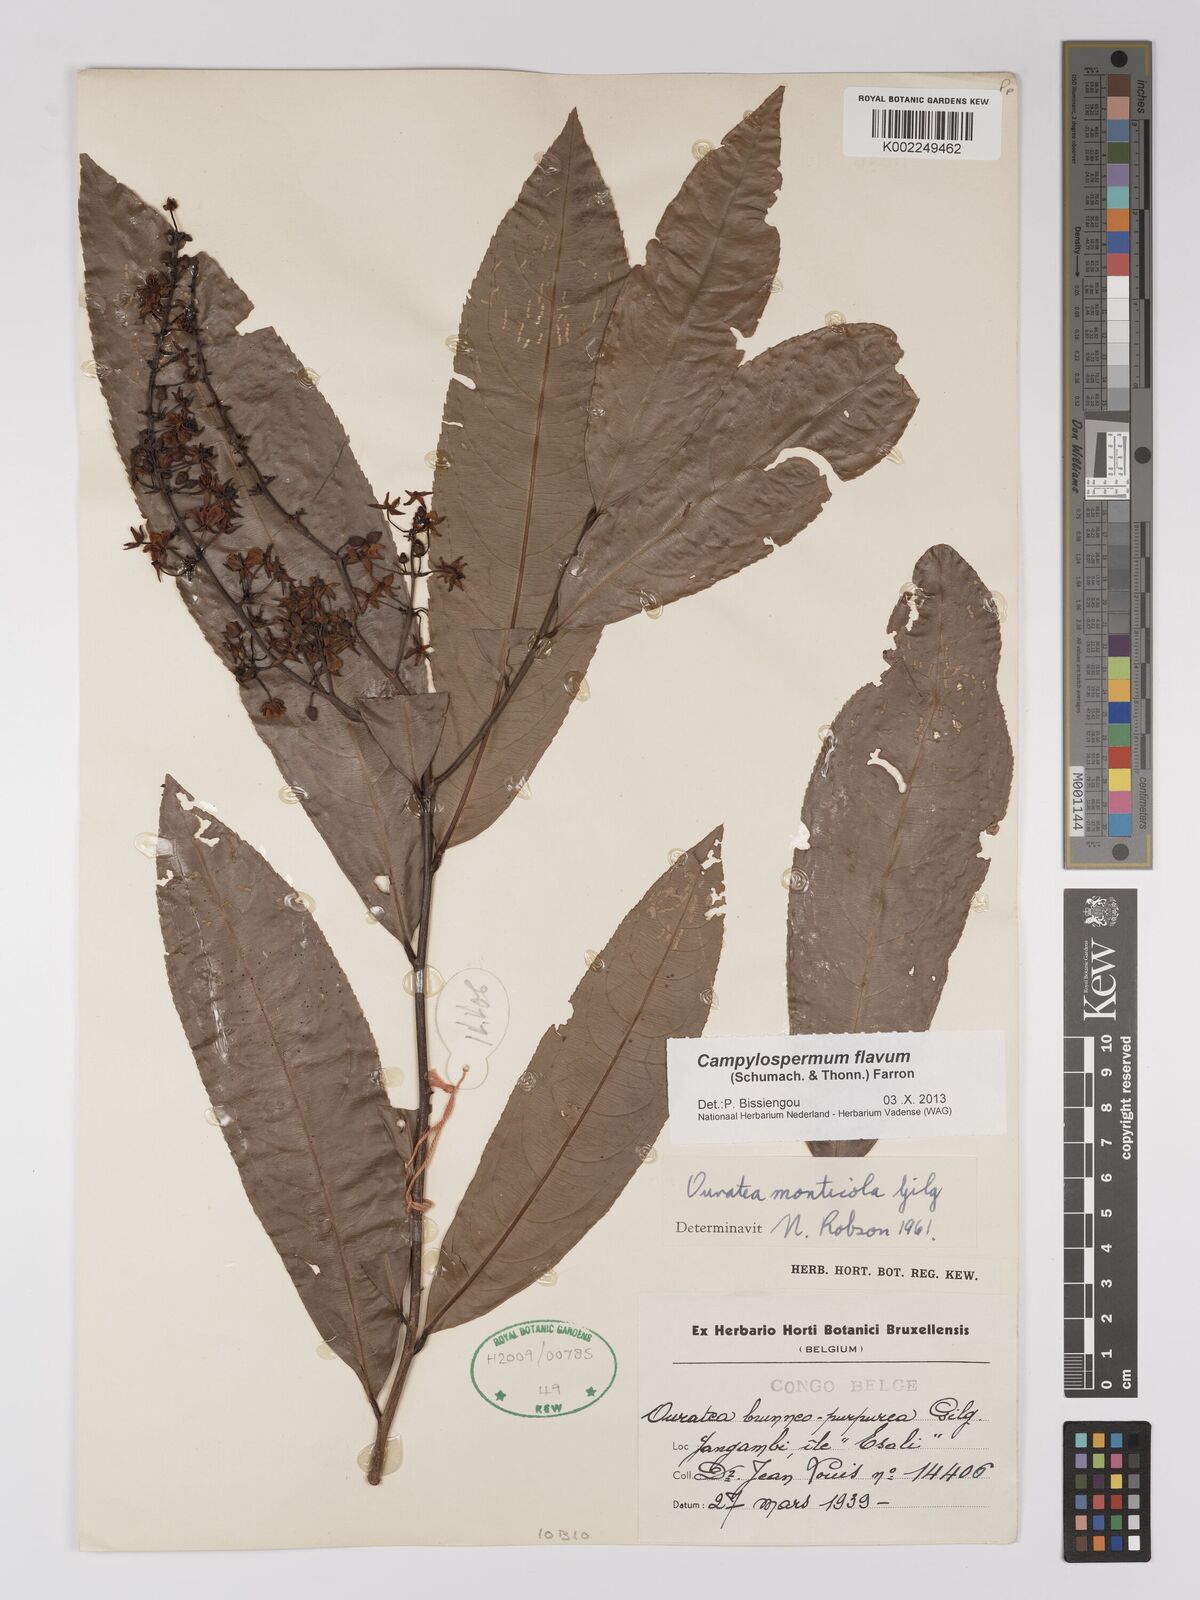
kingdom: Plantae
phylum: Tracheophyta
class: Magnoliopsida
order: Malpighiales
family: Ochnaceae
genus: Campylospermum
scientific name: Campylospermum flavum
